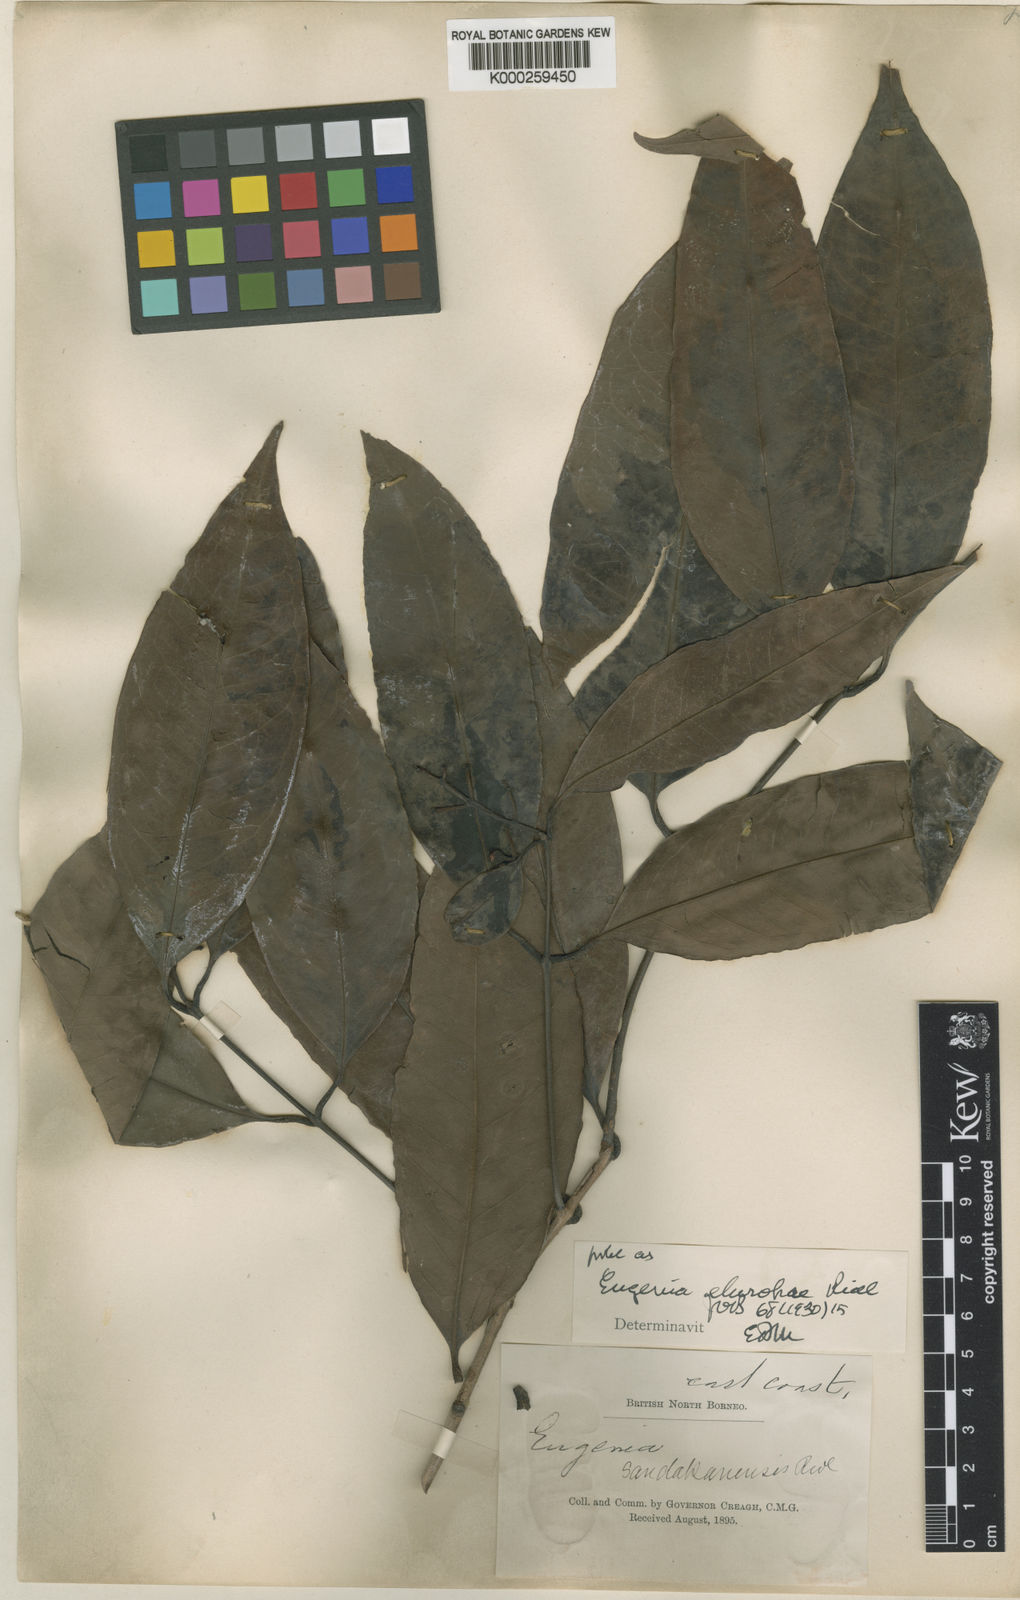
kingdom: Plantae
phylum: Tracheophyta
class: Magnoliopsida
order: Myrtales
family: Myrtaceae
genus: Syzygium
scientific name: Syzygium elopurae
